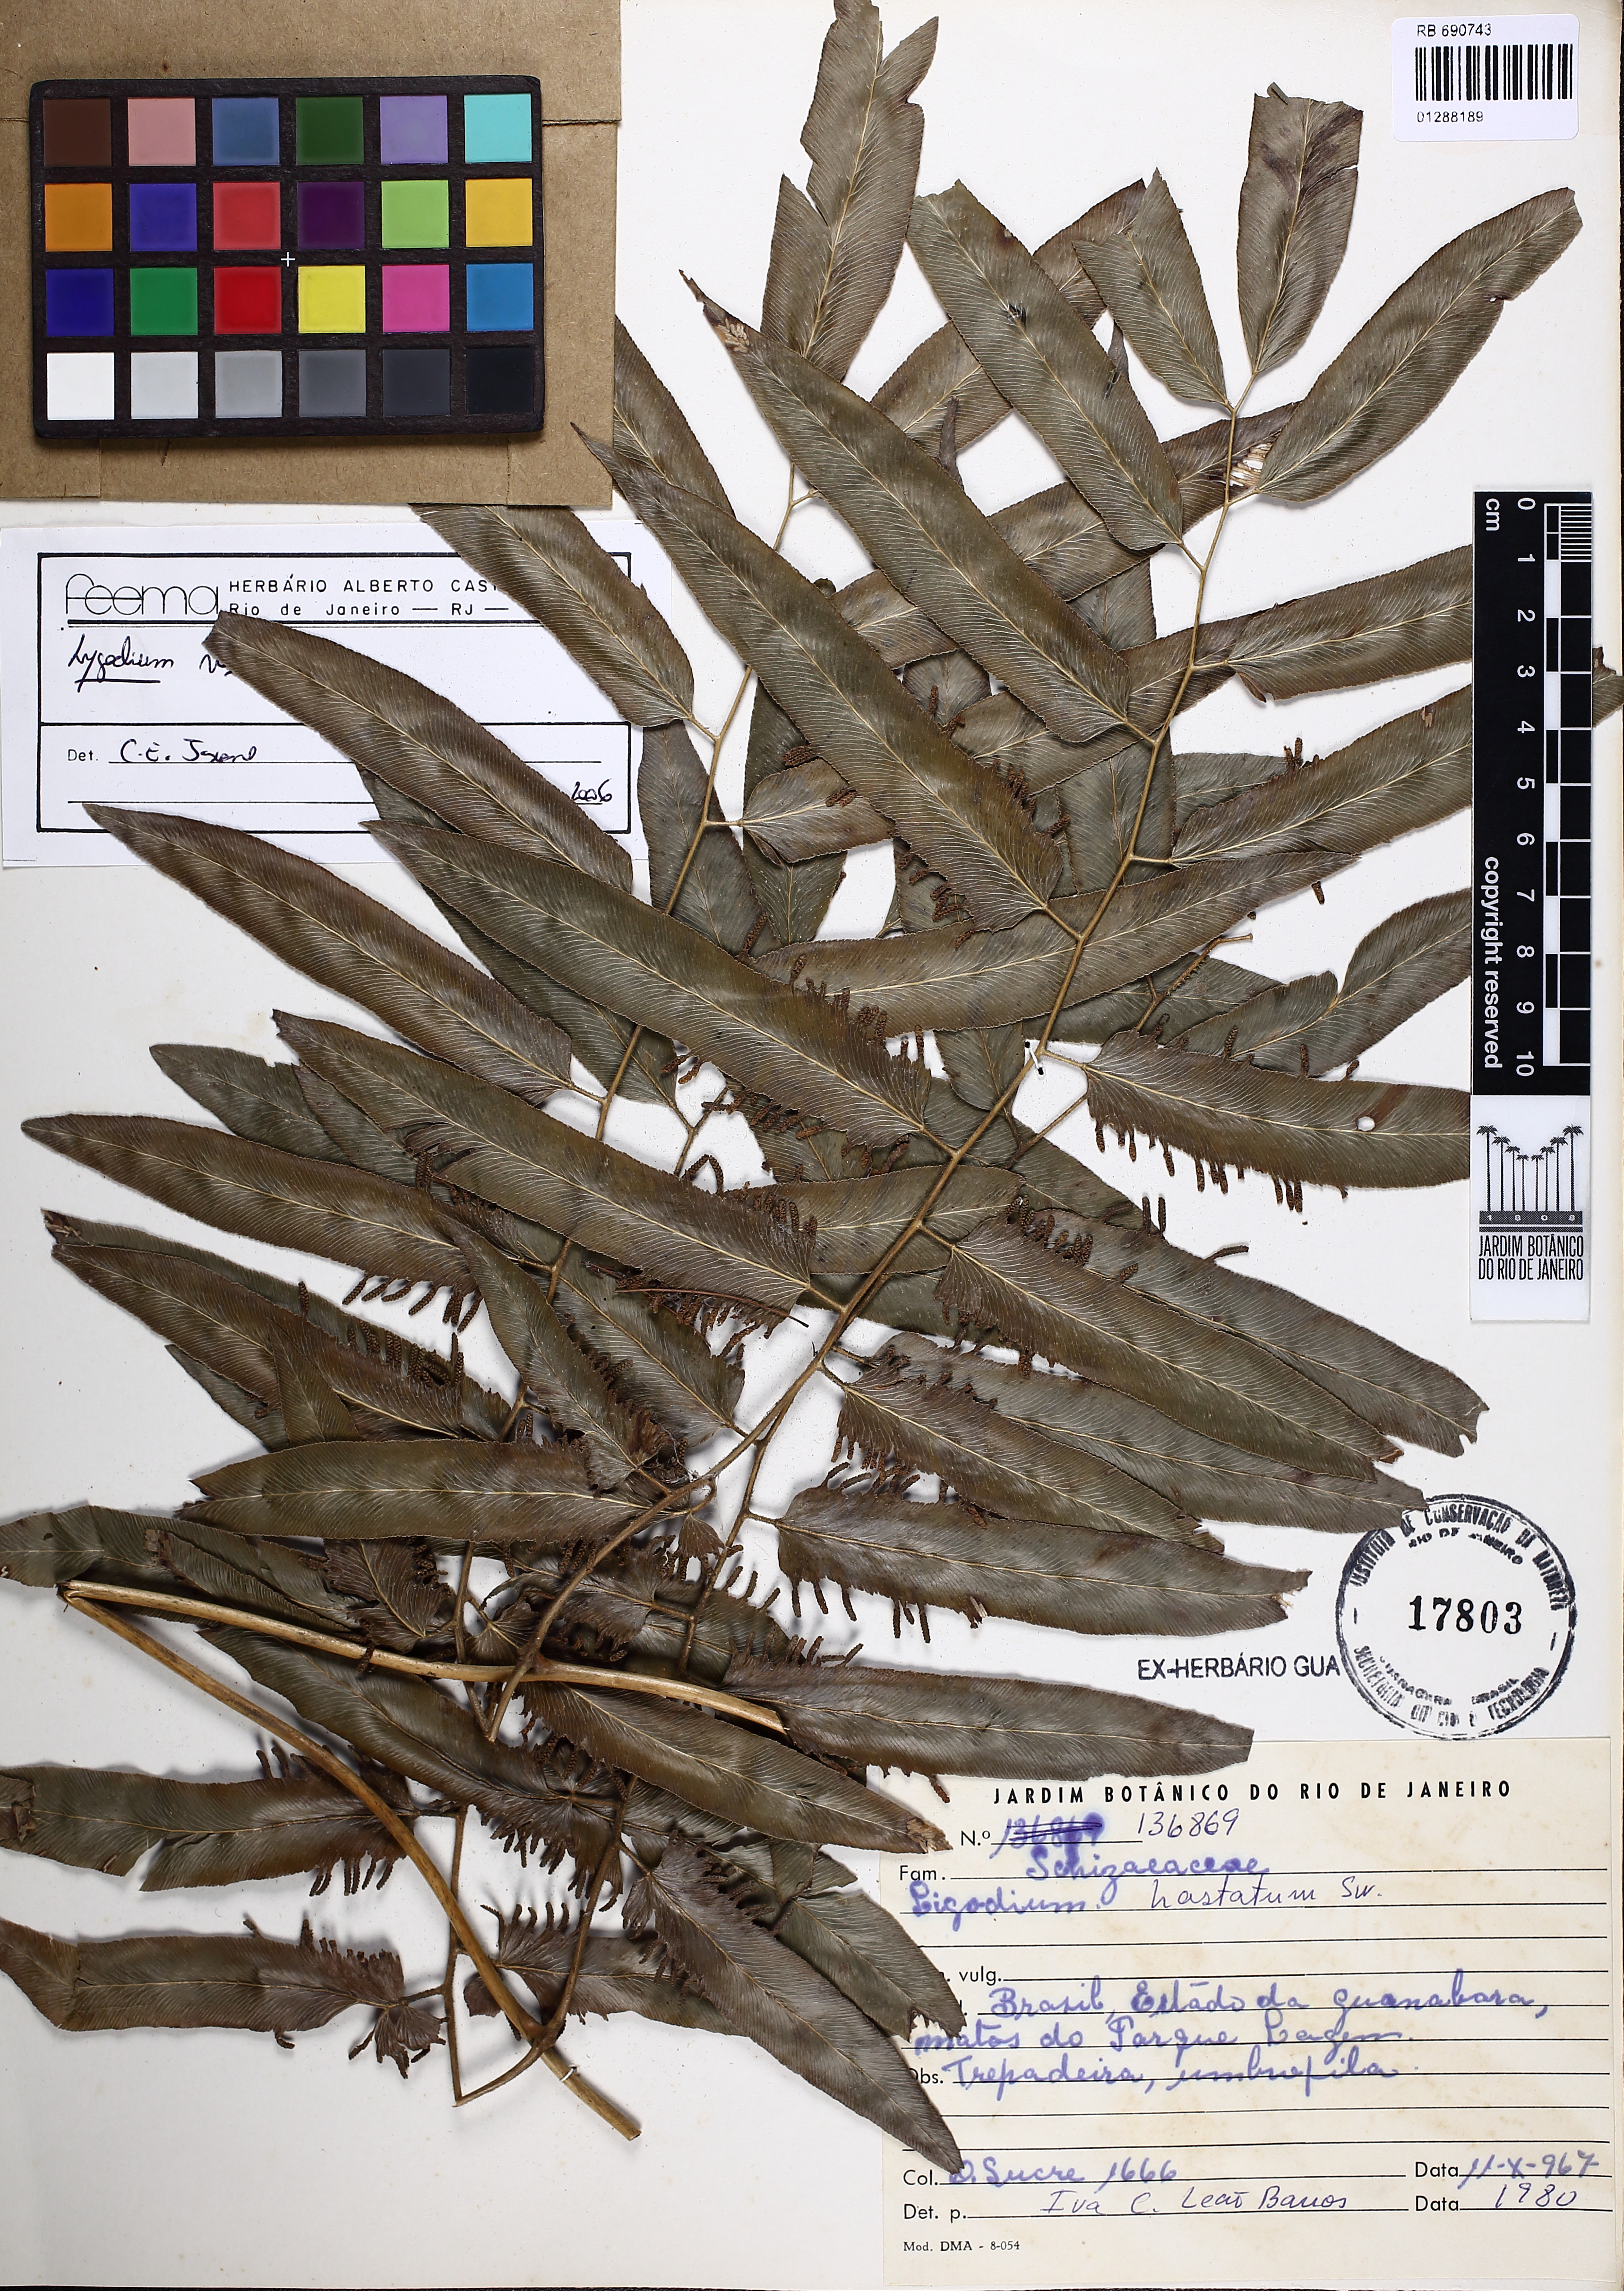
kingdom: Plantae
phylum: Tracheophyta
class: Polypodiopsida
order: Schizaeales
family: Lygodiaceae
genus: Lygodium
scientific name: Lygodium venustum
